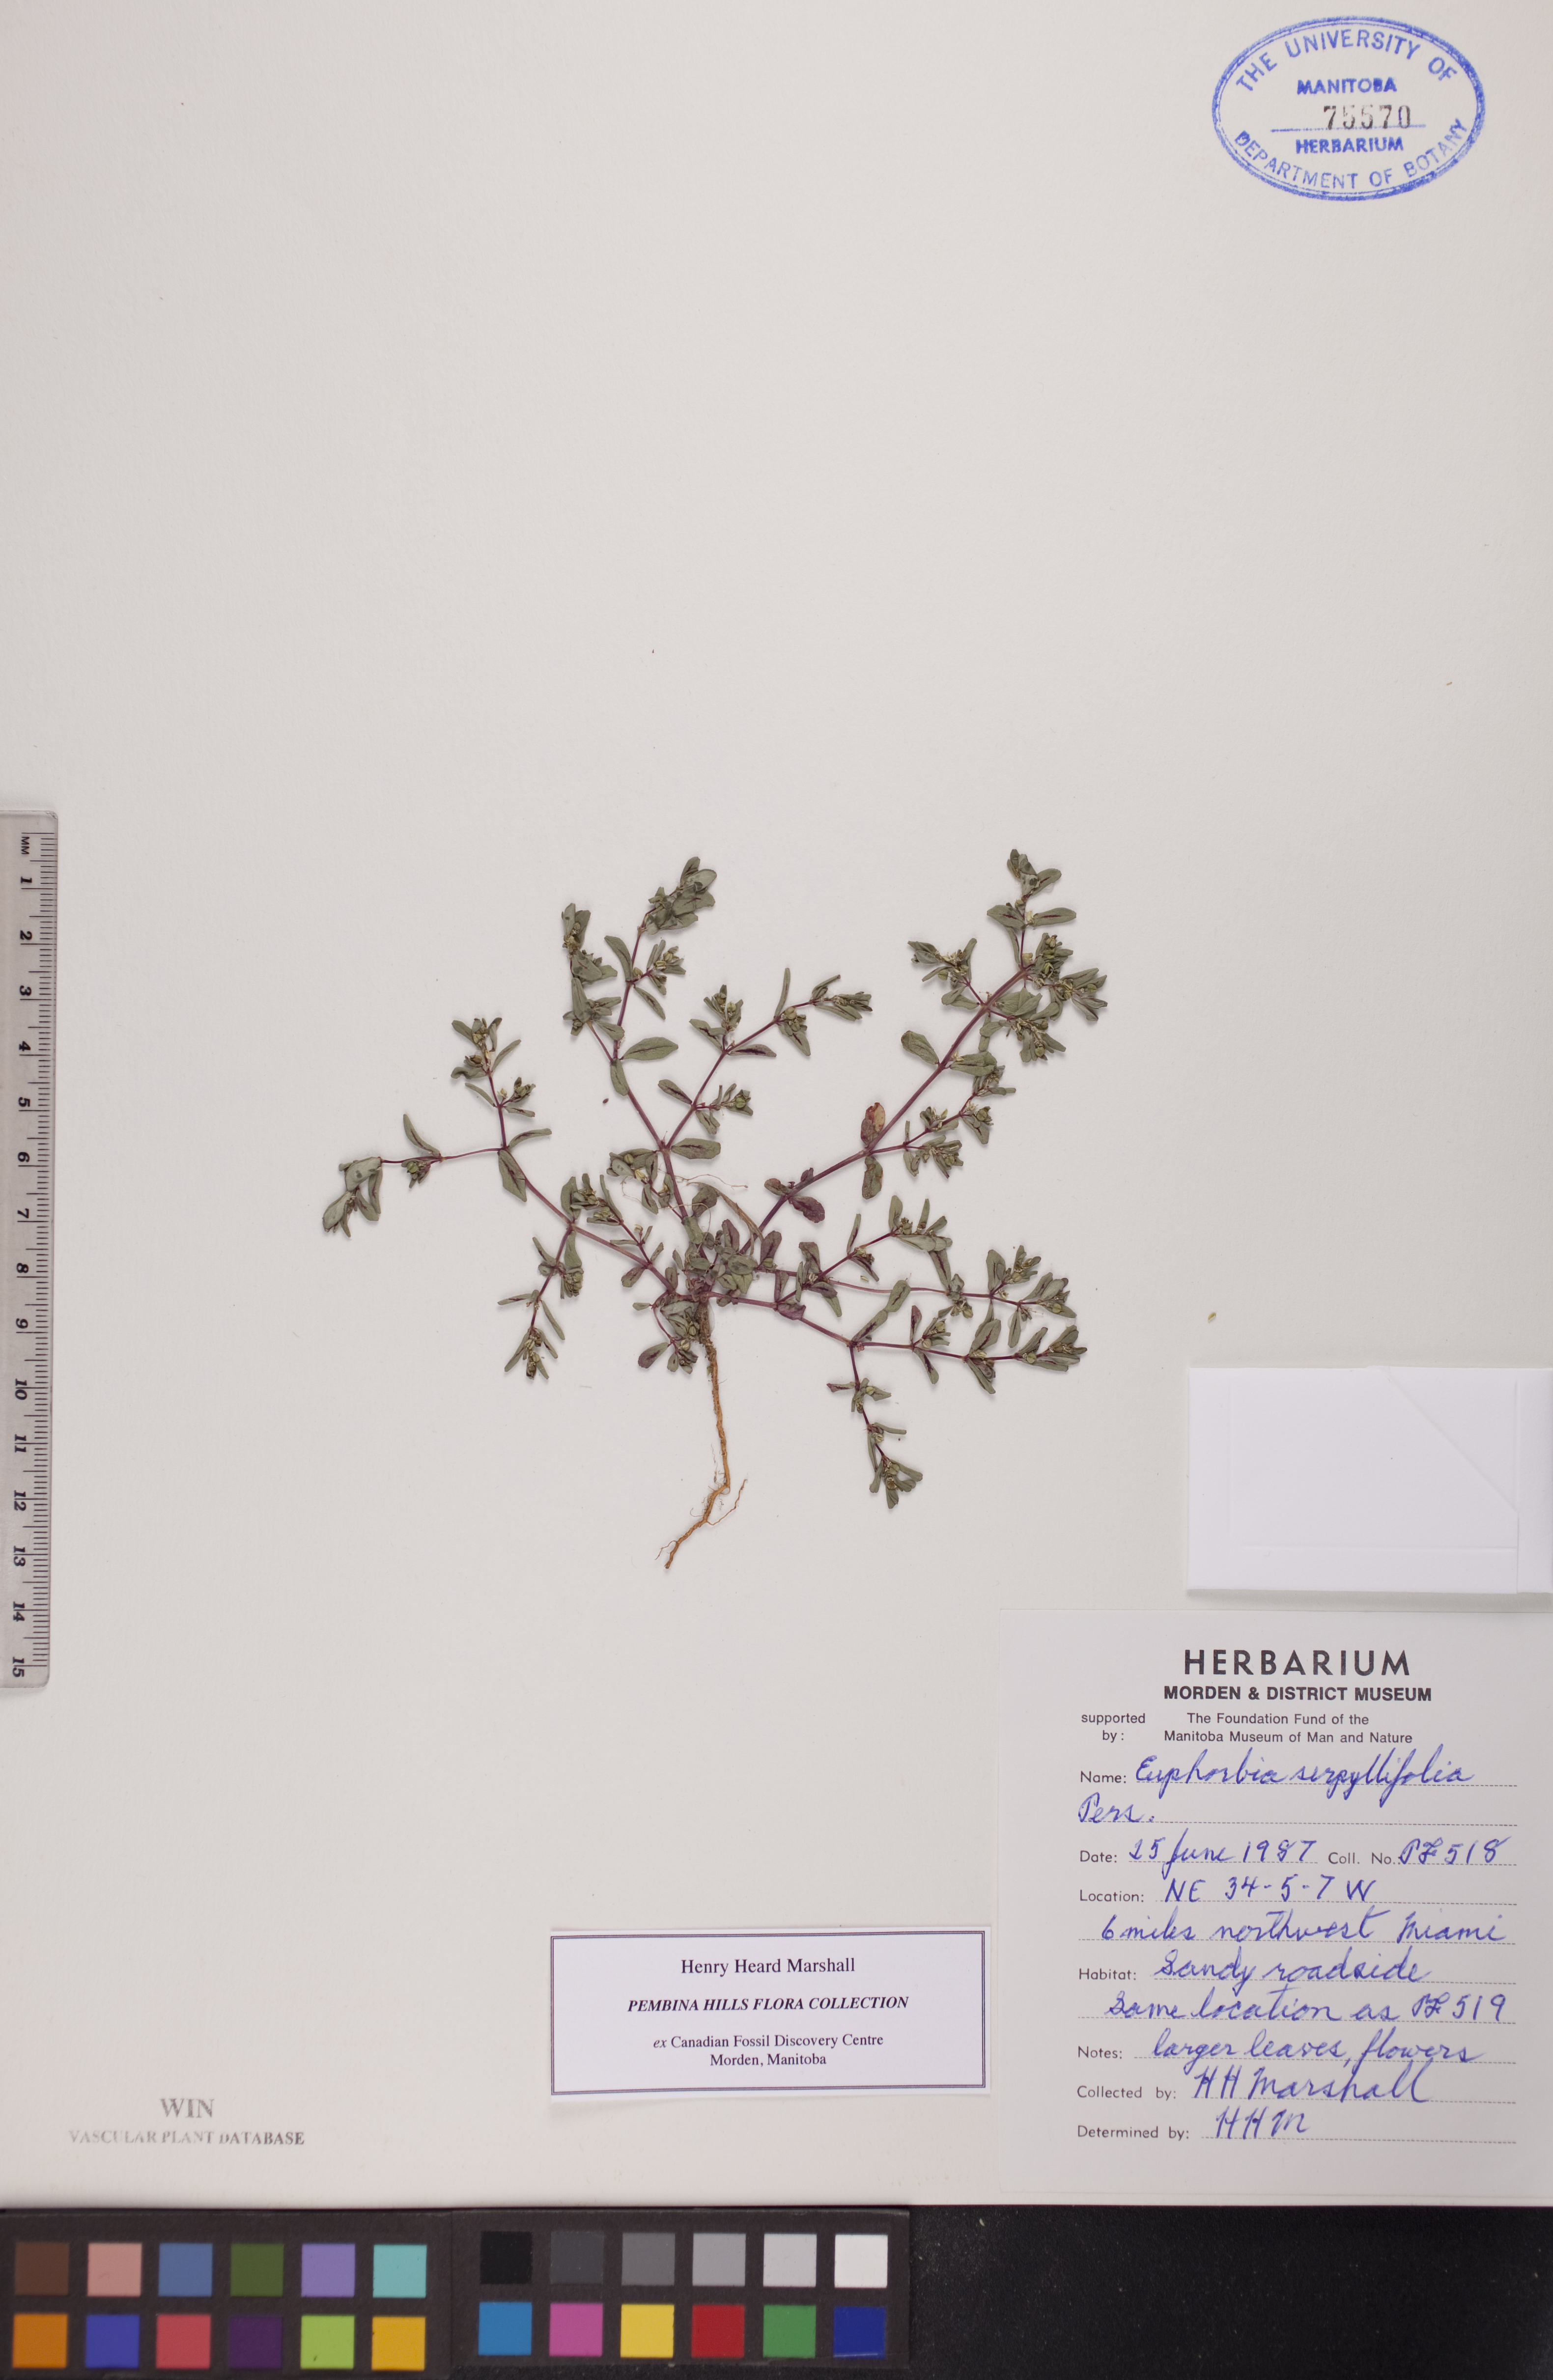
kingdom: Plantae
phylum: Tracheophyta
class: Magnoliopsida
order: Malpighiales
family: Euphorbiaceae
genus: Euphorbia
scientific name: Euphorbia serpillifolia
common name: Thyme-leaf spurge
